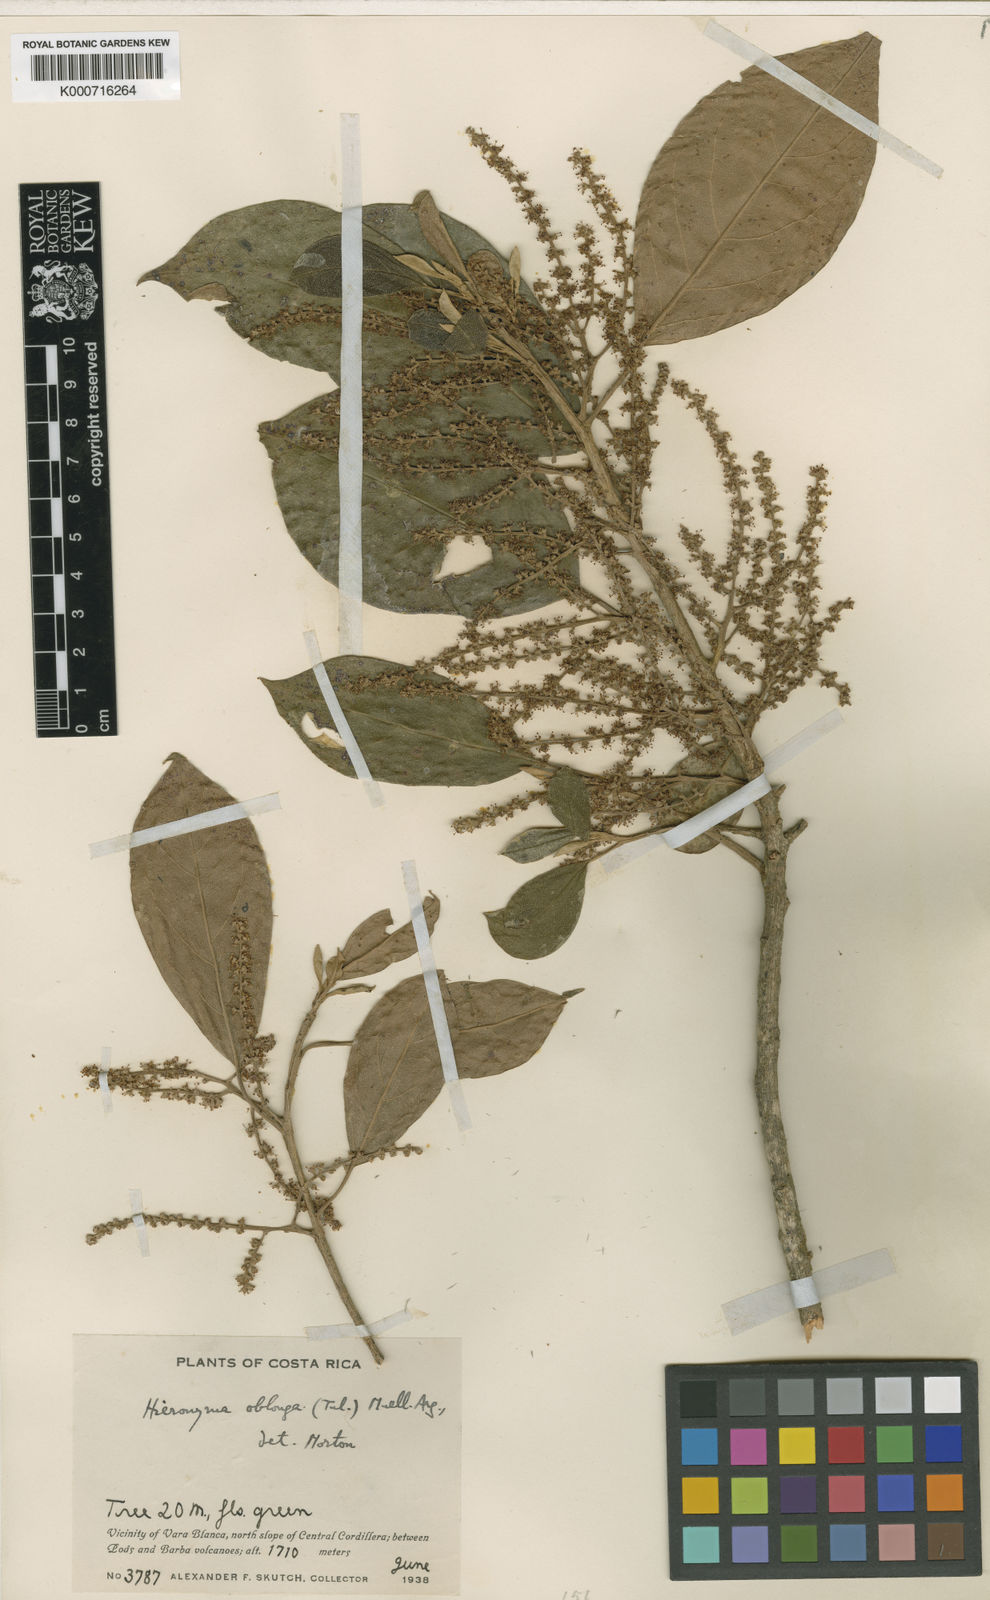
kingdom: Plantae
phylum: Tracheophyta
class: Magnoliopsida
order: Malpighiales
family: Phyllanthaceae
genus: Hieronyma
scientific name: Hieronyma
